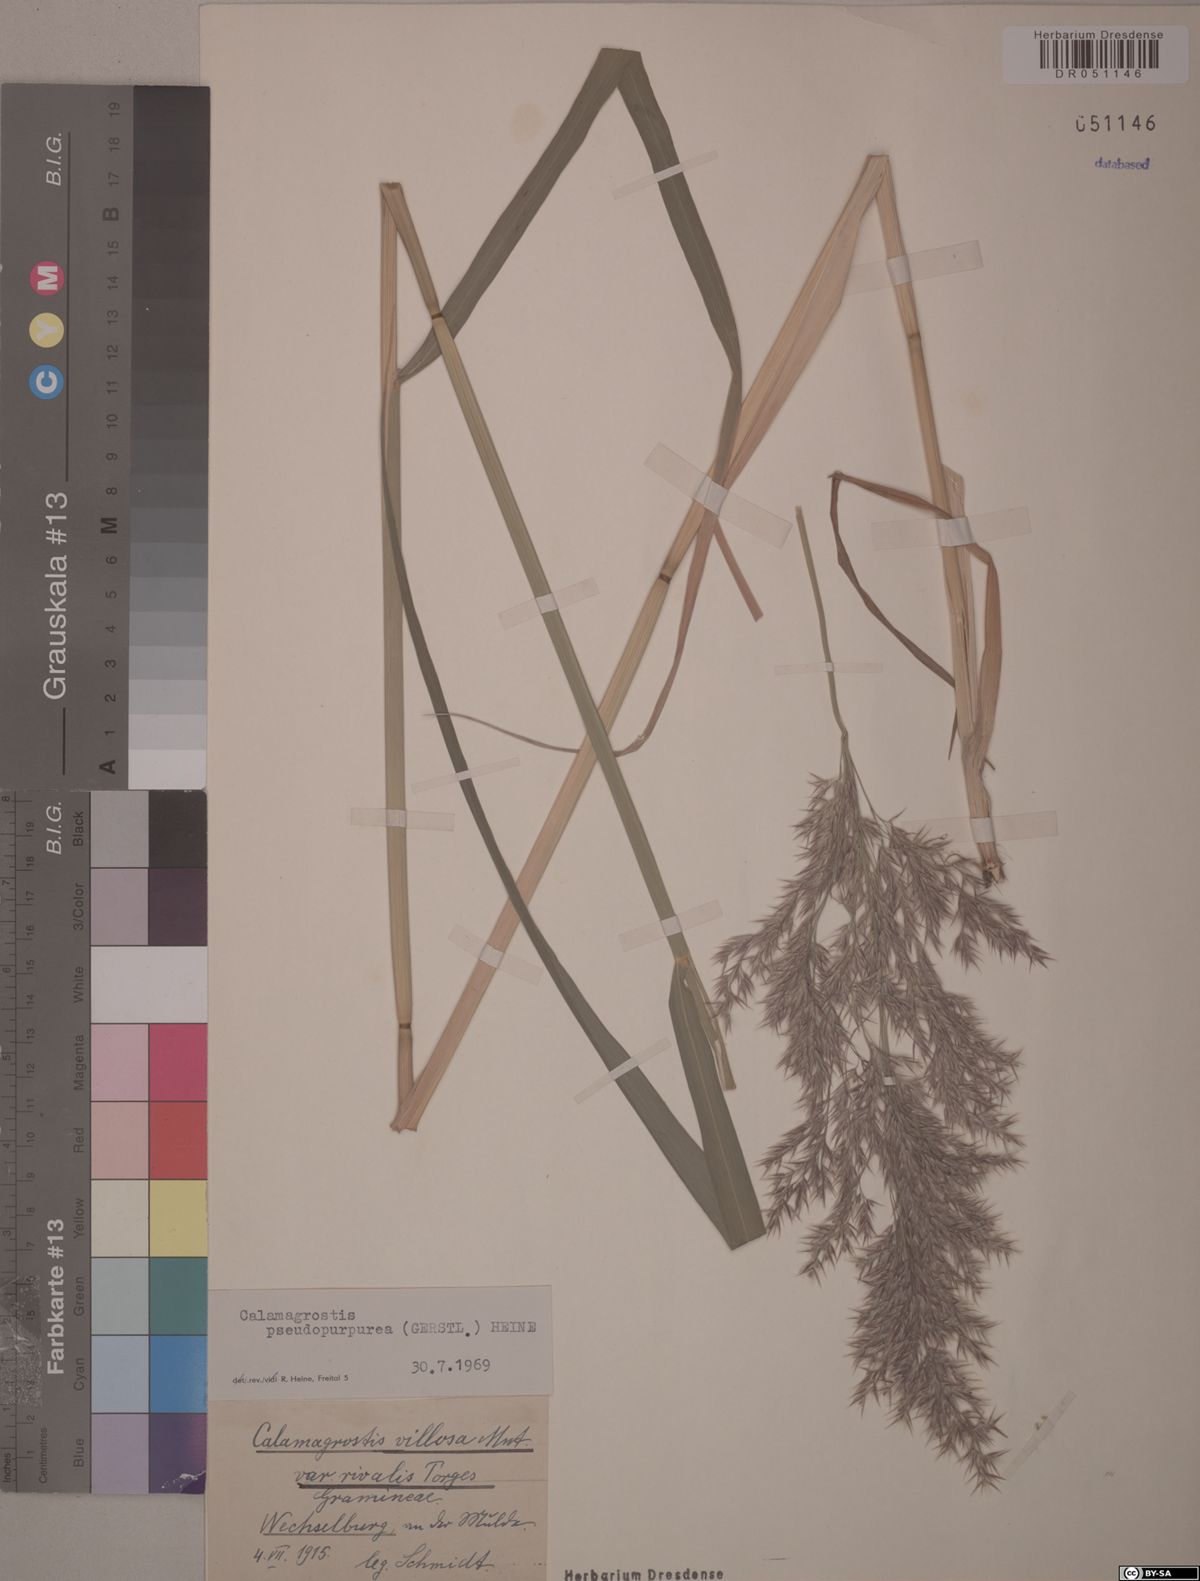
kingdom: Plantae
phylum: Tracheophyta
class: Liliopsida
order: Poales
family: Poaceae
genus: Calamagrostis
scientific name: Calamagrostis purpurea
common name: Scandinavian small-reed
